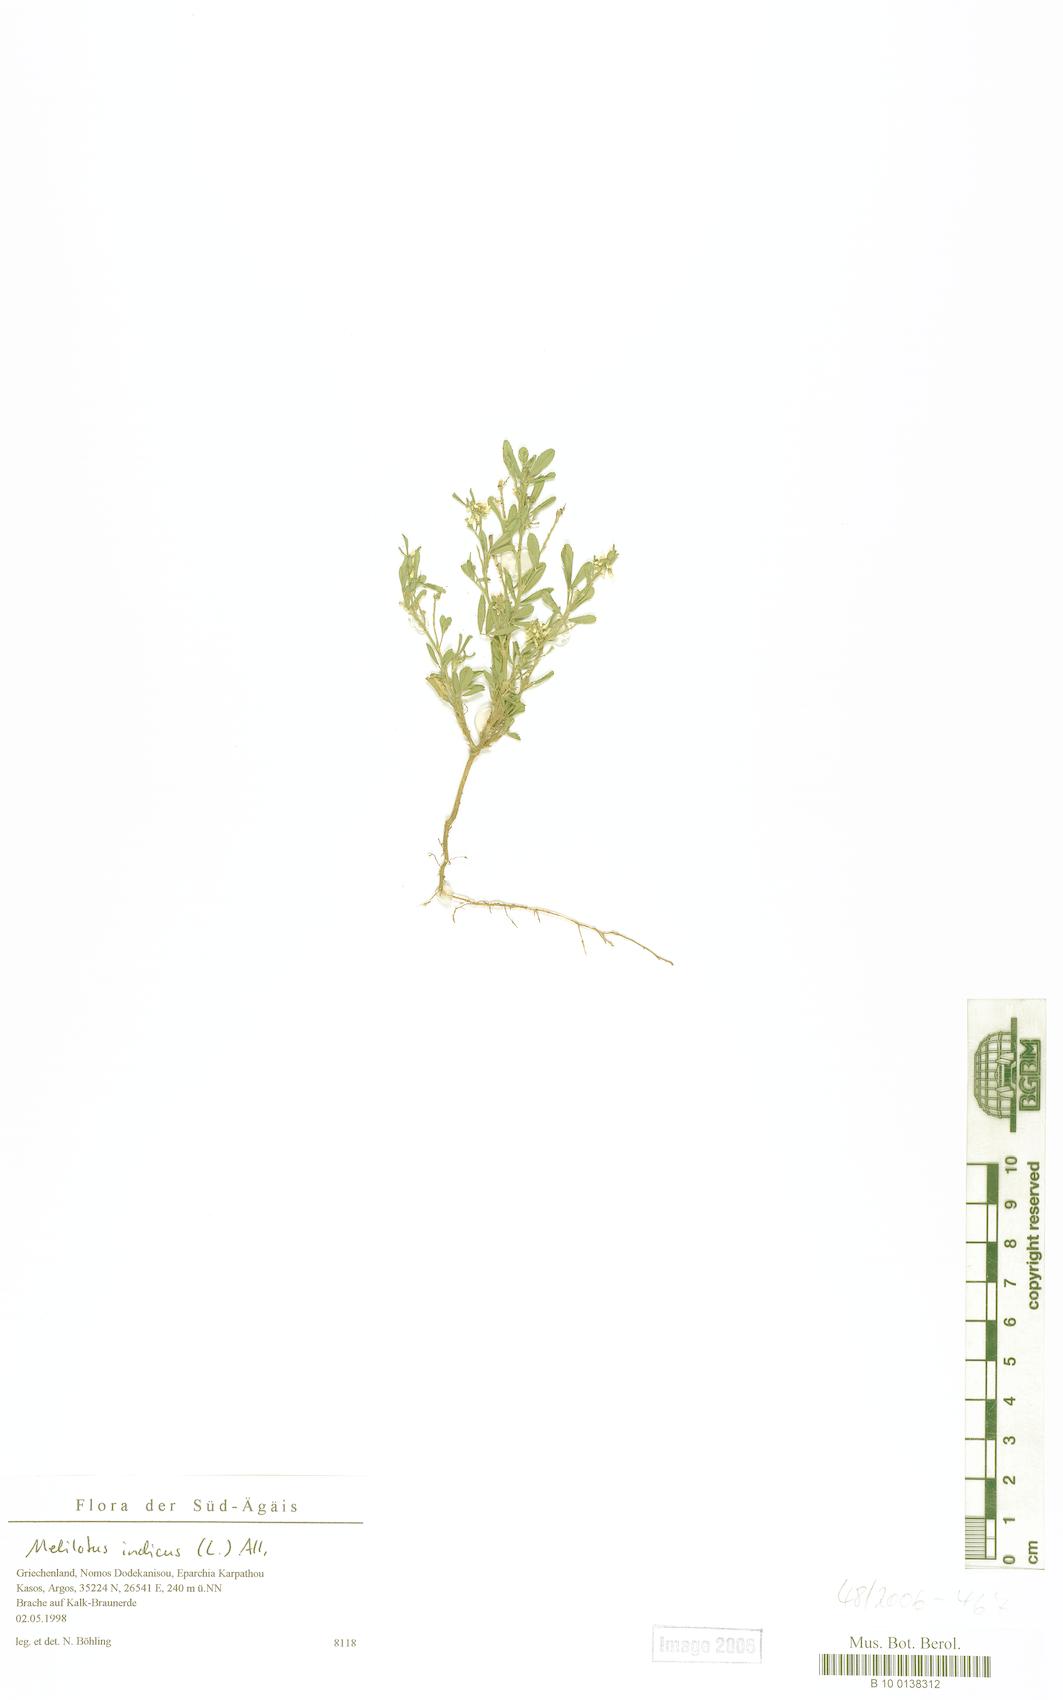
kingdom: Plantae
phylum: Tracheophyta
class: Magnoliopsida
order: Fabales
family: Fabaceae
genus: Melilotus
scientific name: Melilotus indicus
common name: Small melilot
